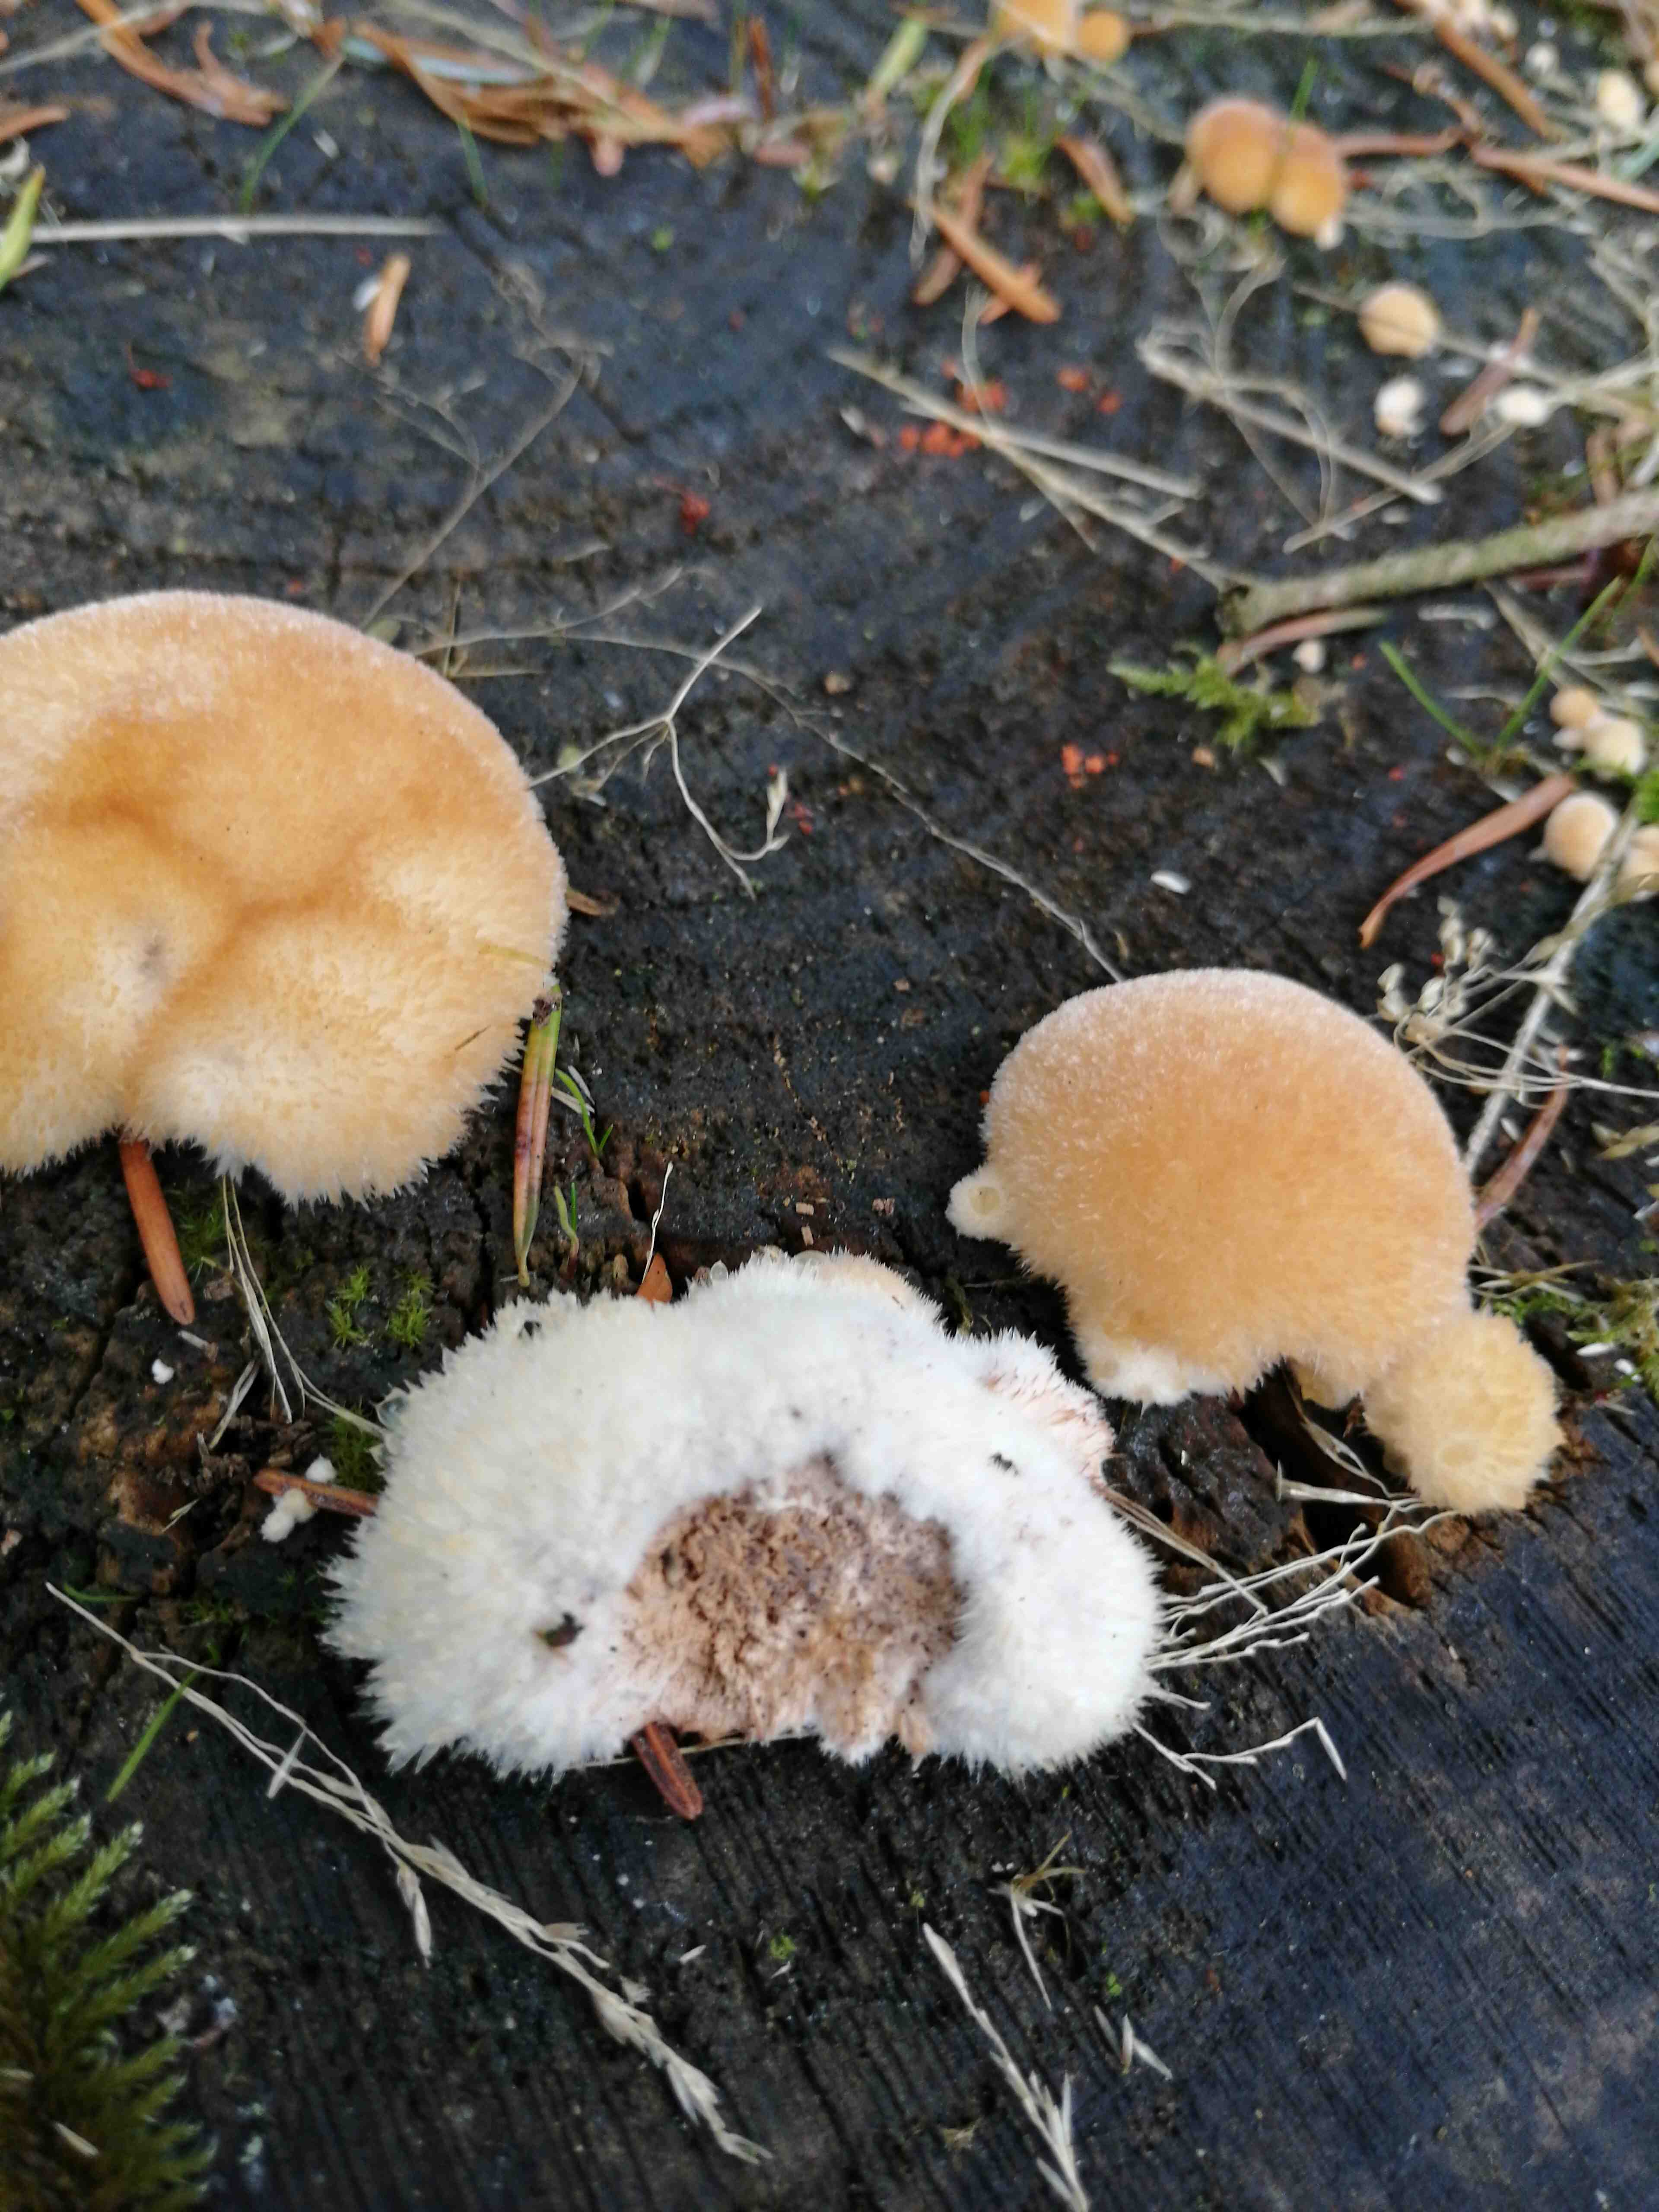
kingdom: Fungi
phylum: Basidiomycota
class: Agaricomycetes
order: Polyporales
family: Dacryobolaceae
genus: Postia
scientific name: Postia ptychogaster
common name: støvende kødporesvamp
